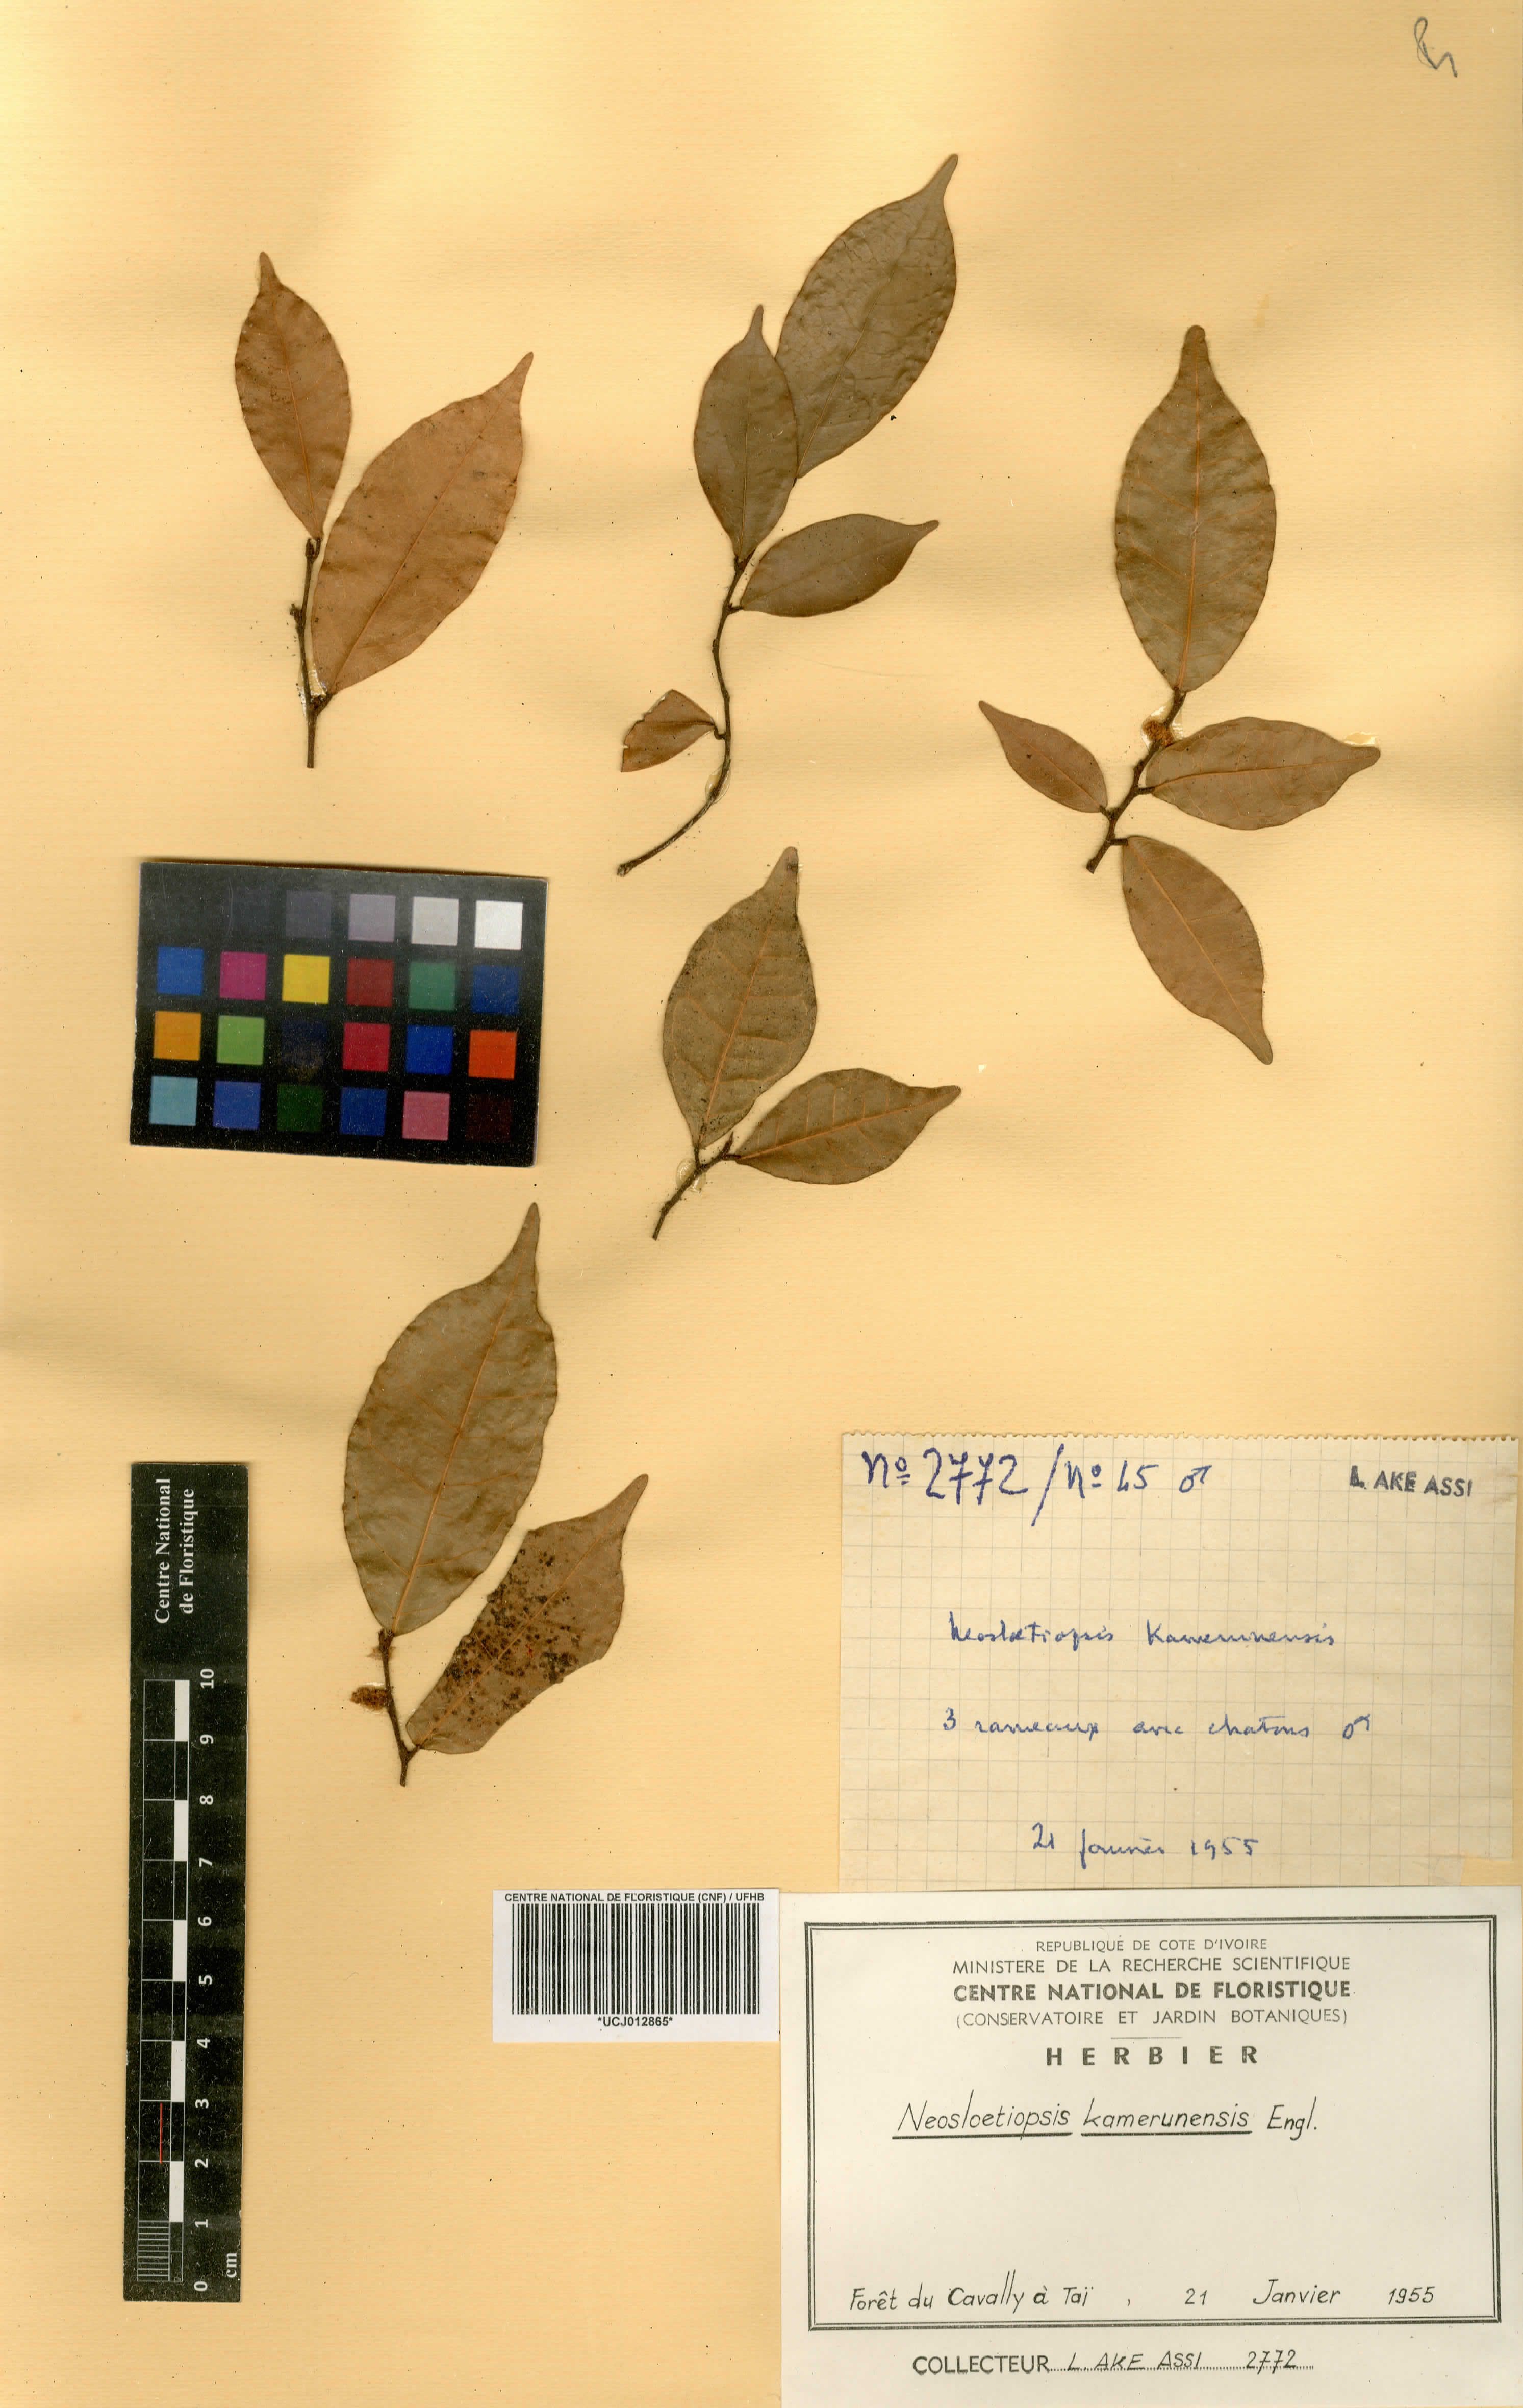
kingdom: Plantae
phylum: Tracheophyta
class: Magnoliopsida
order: Rosales
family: Moraceae
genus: Sloetiopsis
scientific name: Sloetiopsis usambarensis
